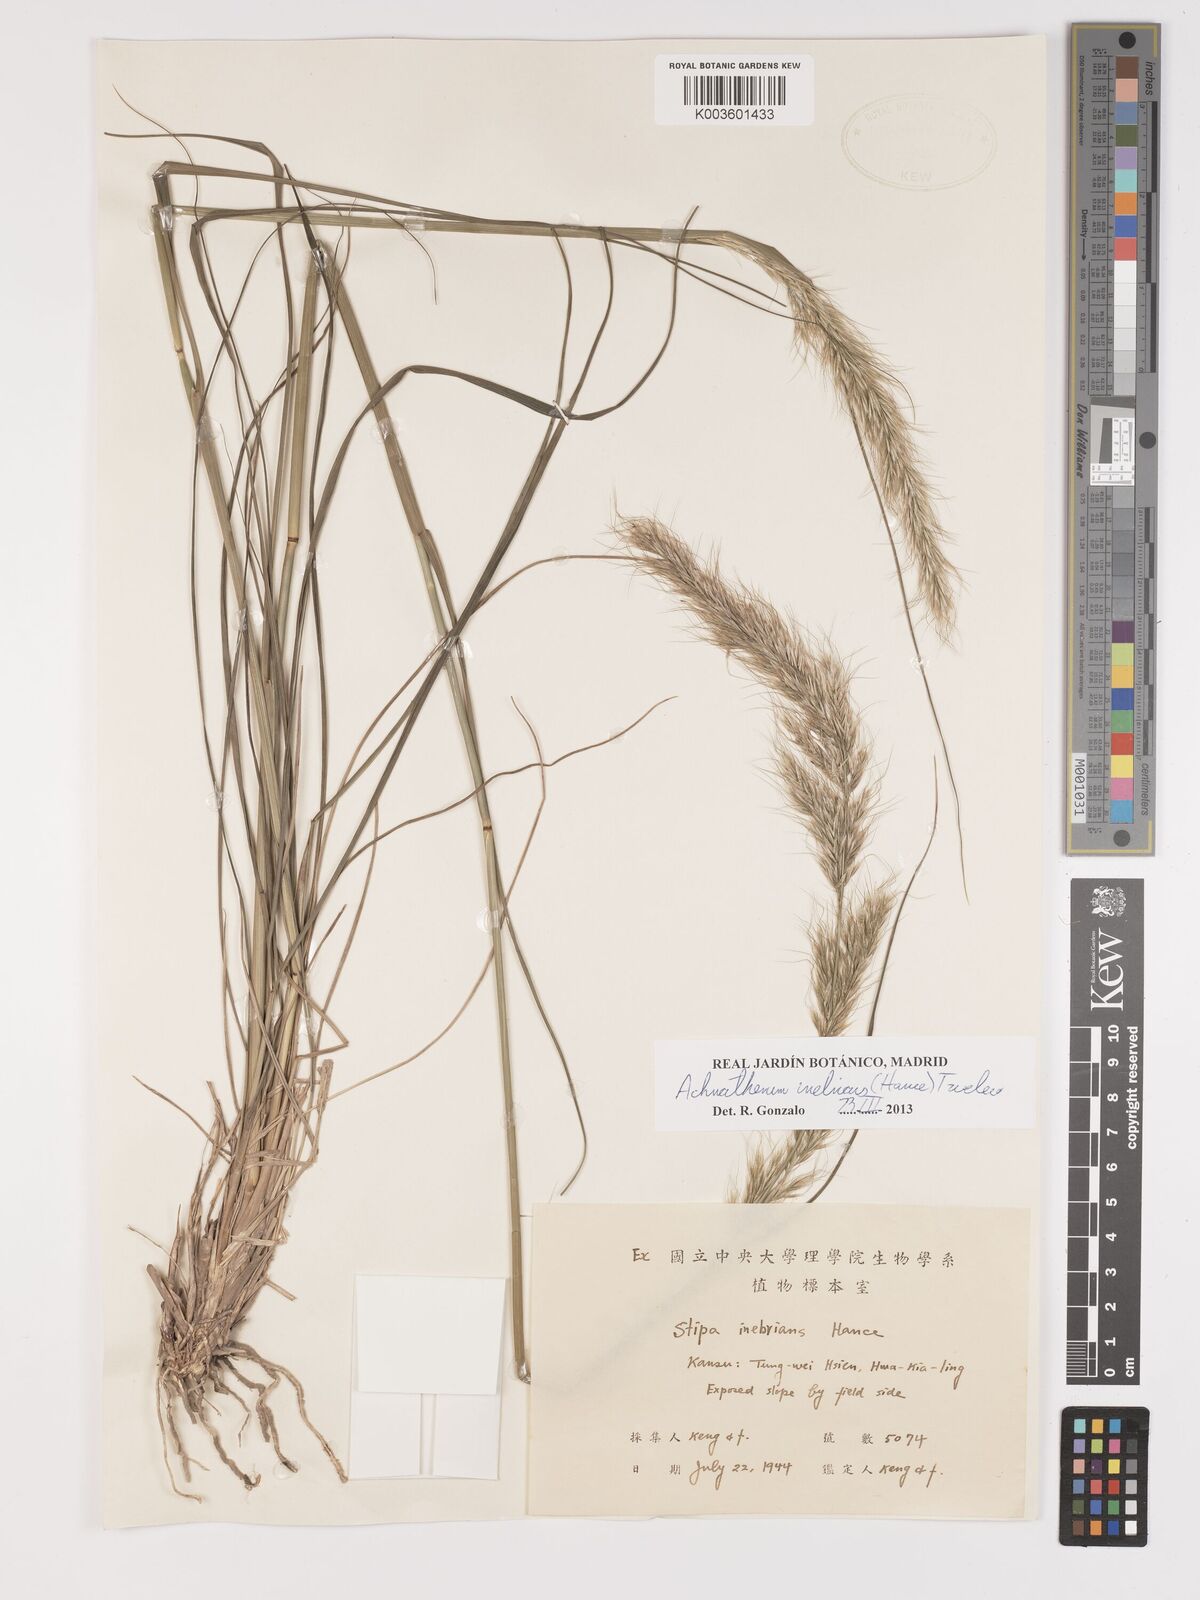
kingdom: Plantae
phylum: Tracheophyta
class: Liliopsida
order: Poales
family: Poaceae
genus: Achnatherum
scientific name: Achnatherum inebrians
